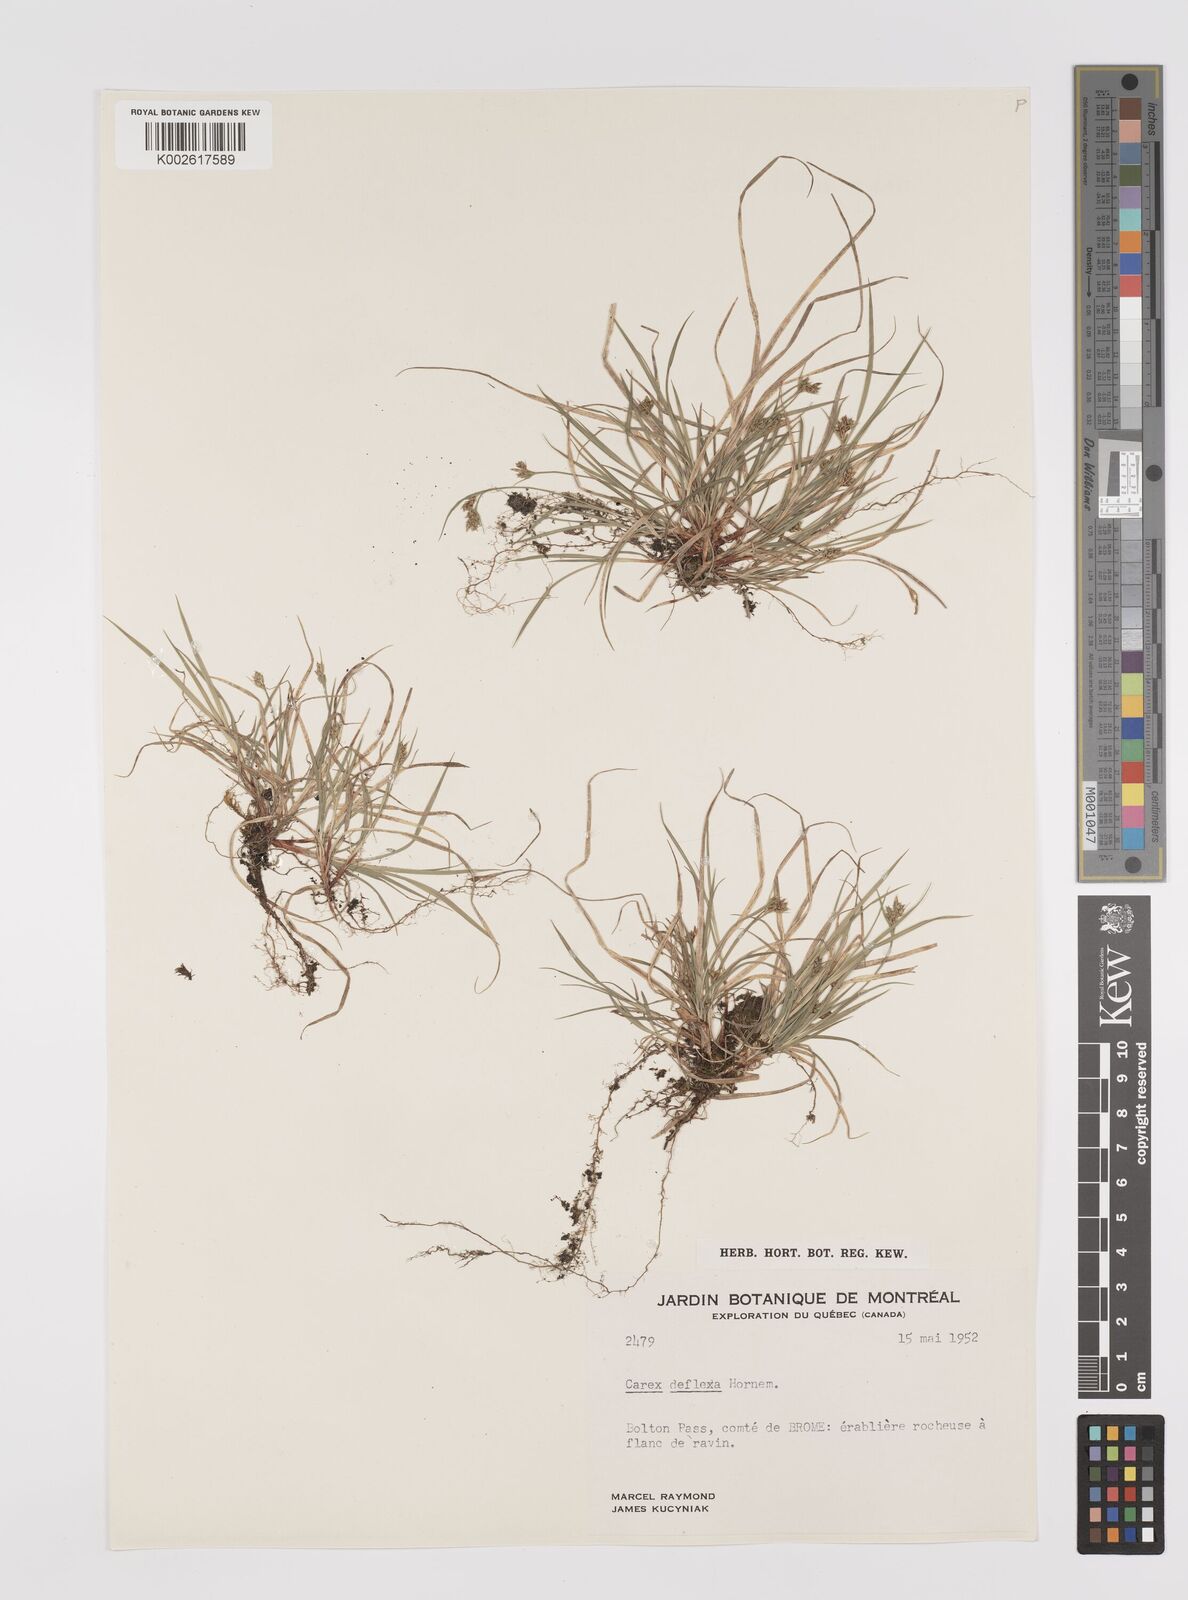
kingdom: Plantae
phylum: Tracheophyta
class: Liliopsida
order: Poales
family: Cyperaceae
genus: Carex
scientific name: Carex deflexa
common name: Bent northern sedge
